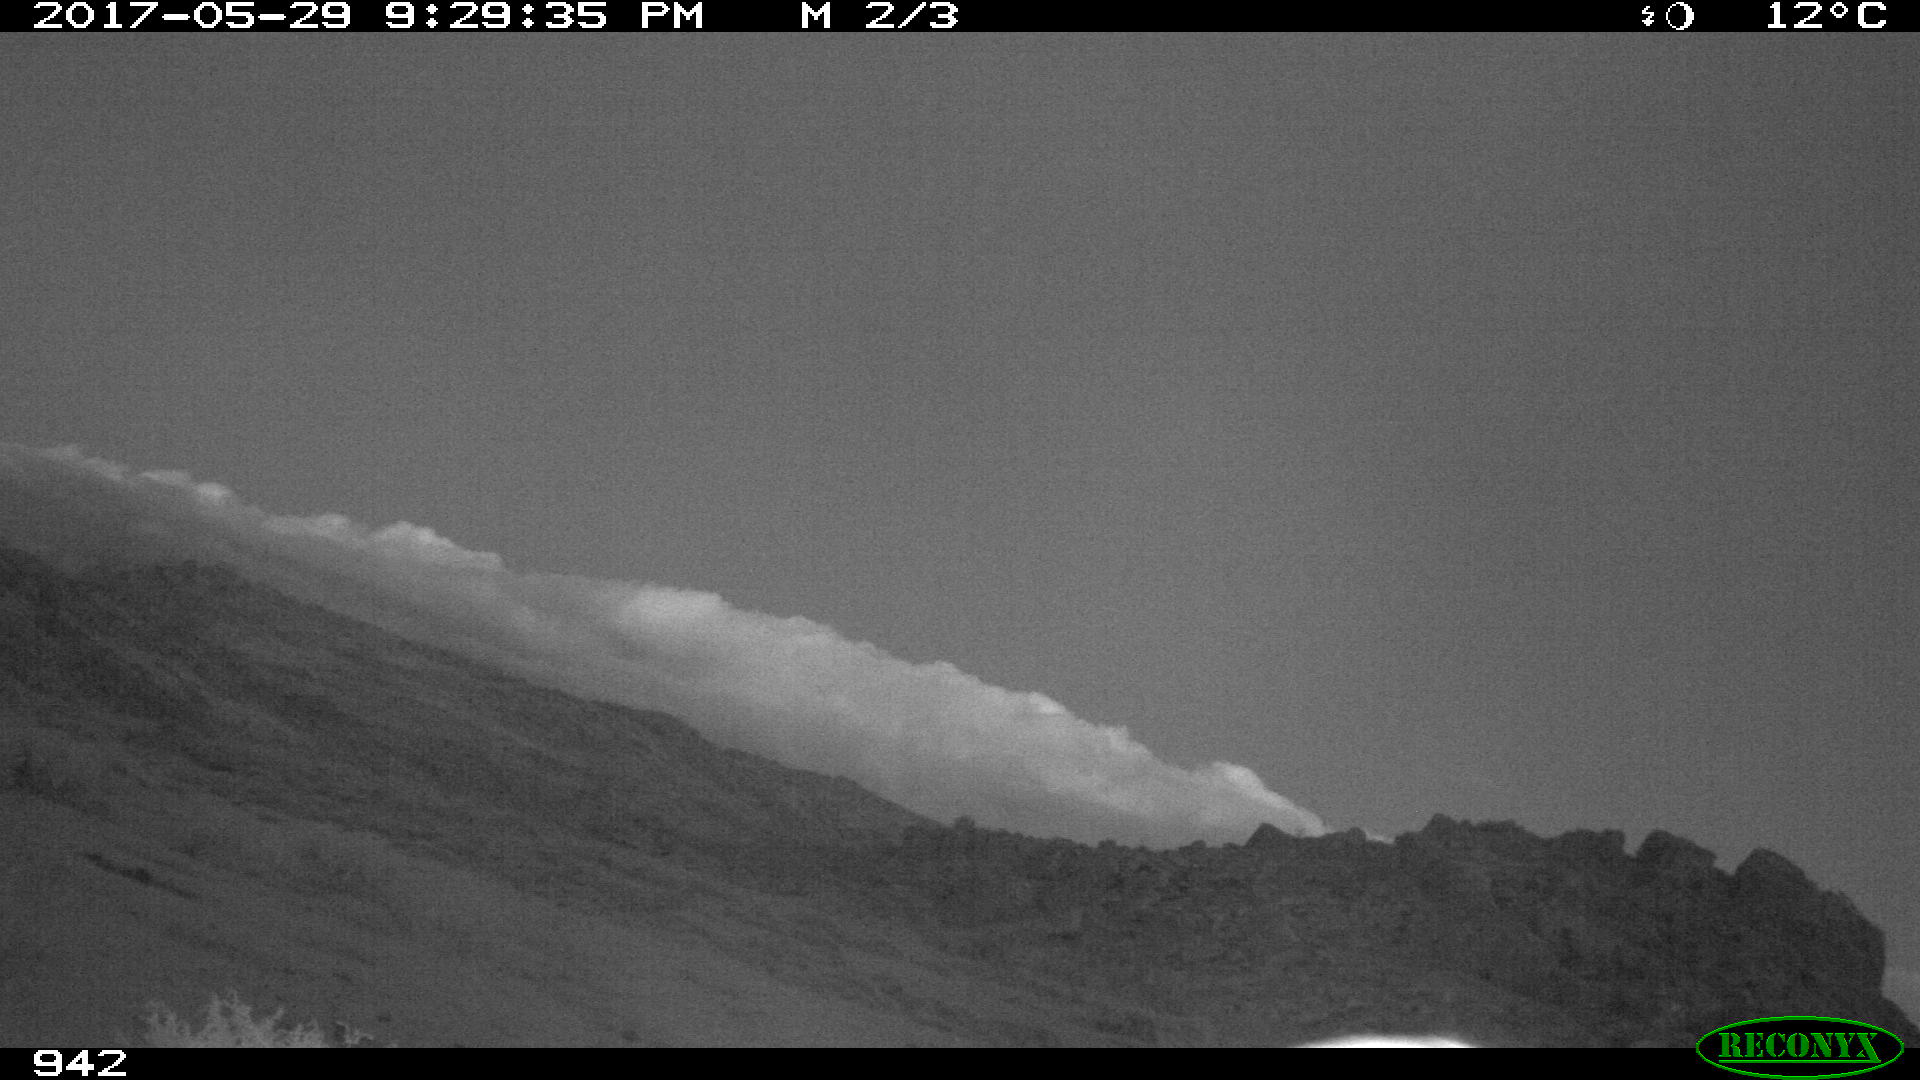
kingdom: Animalia
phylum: Chordata
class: Mammalia
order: Artiodactyla
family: Bovidae
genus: Bos
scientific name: Bos taurus
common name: Domesticated cattle
